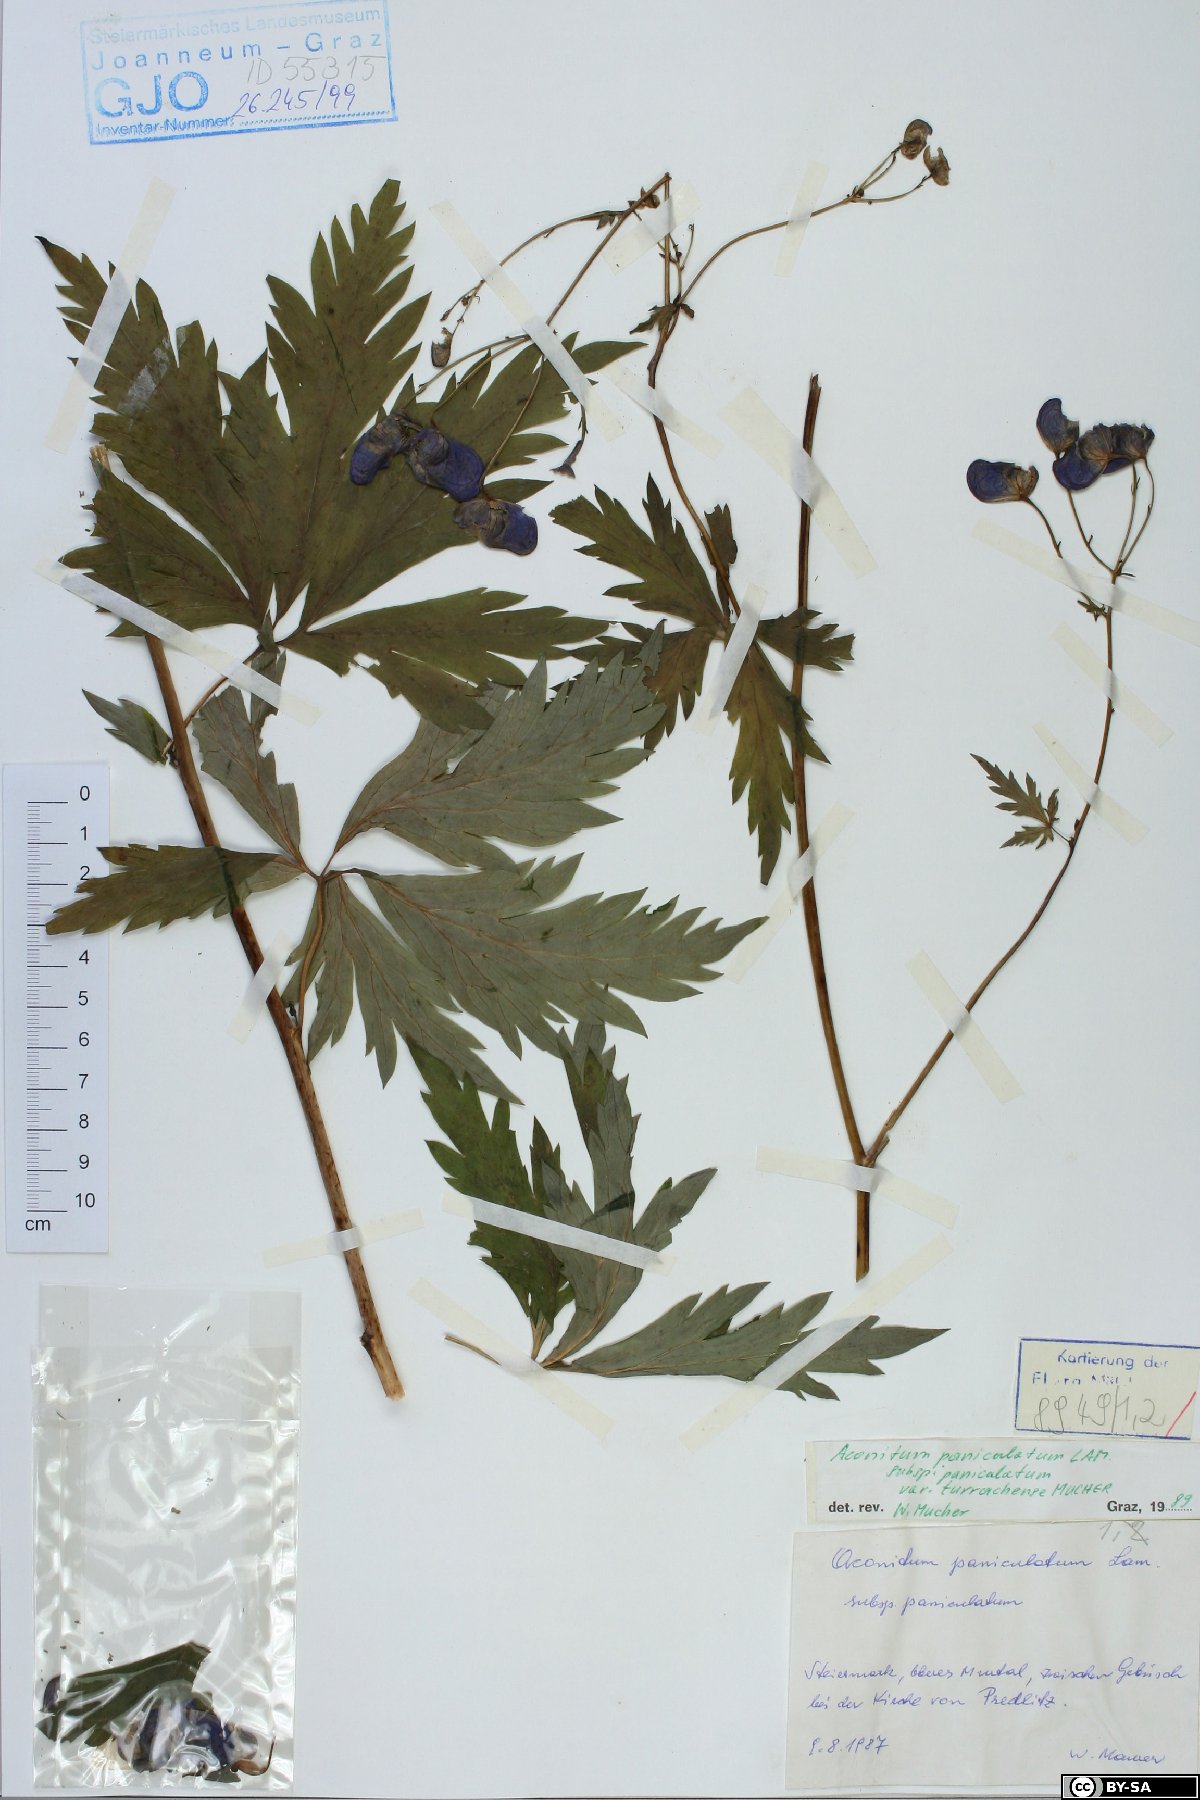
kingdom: Plantae
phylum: Tracheophyta
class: Magnoliopsida
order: Ranunculales
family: Ranunculaceae
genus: Aconitum
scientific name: Aconitum degenii
